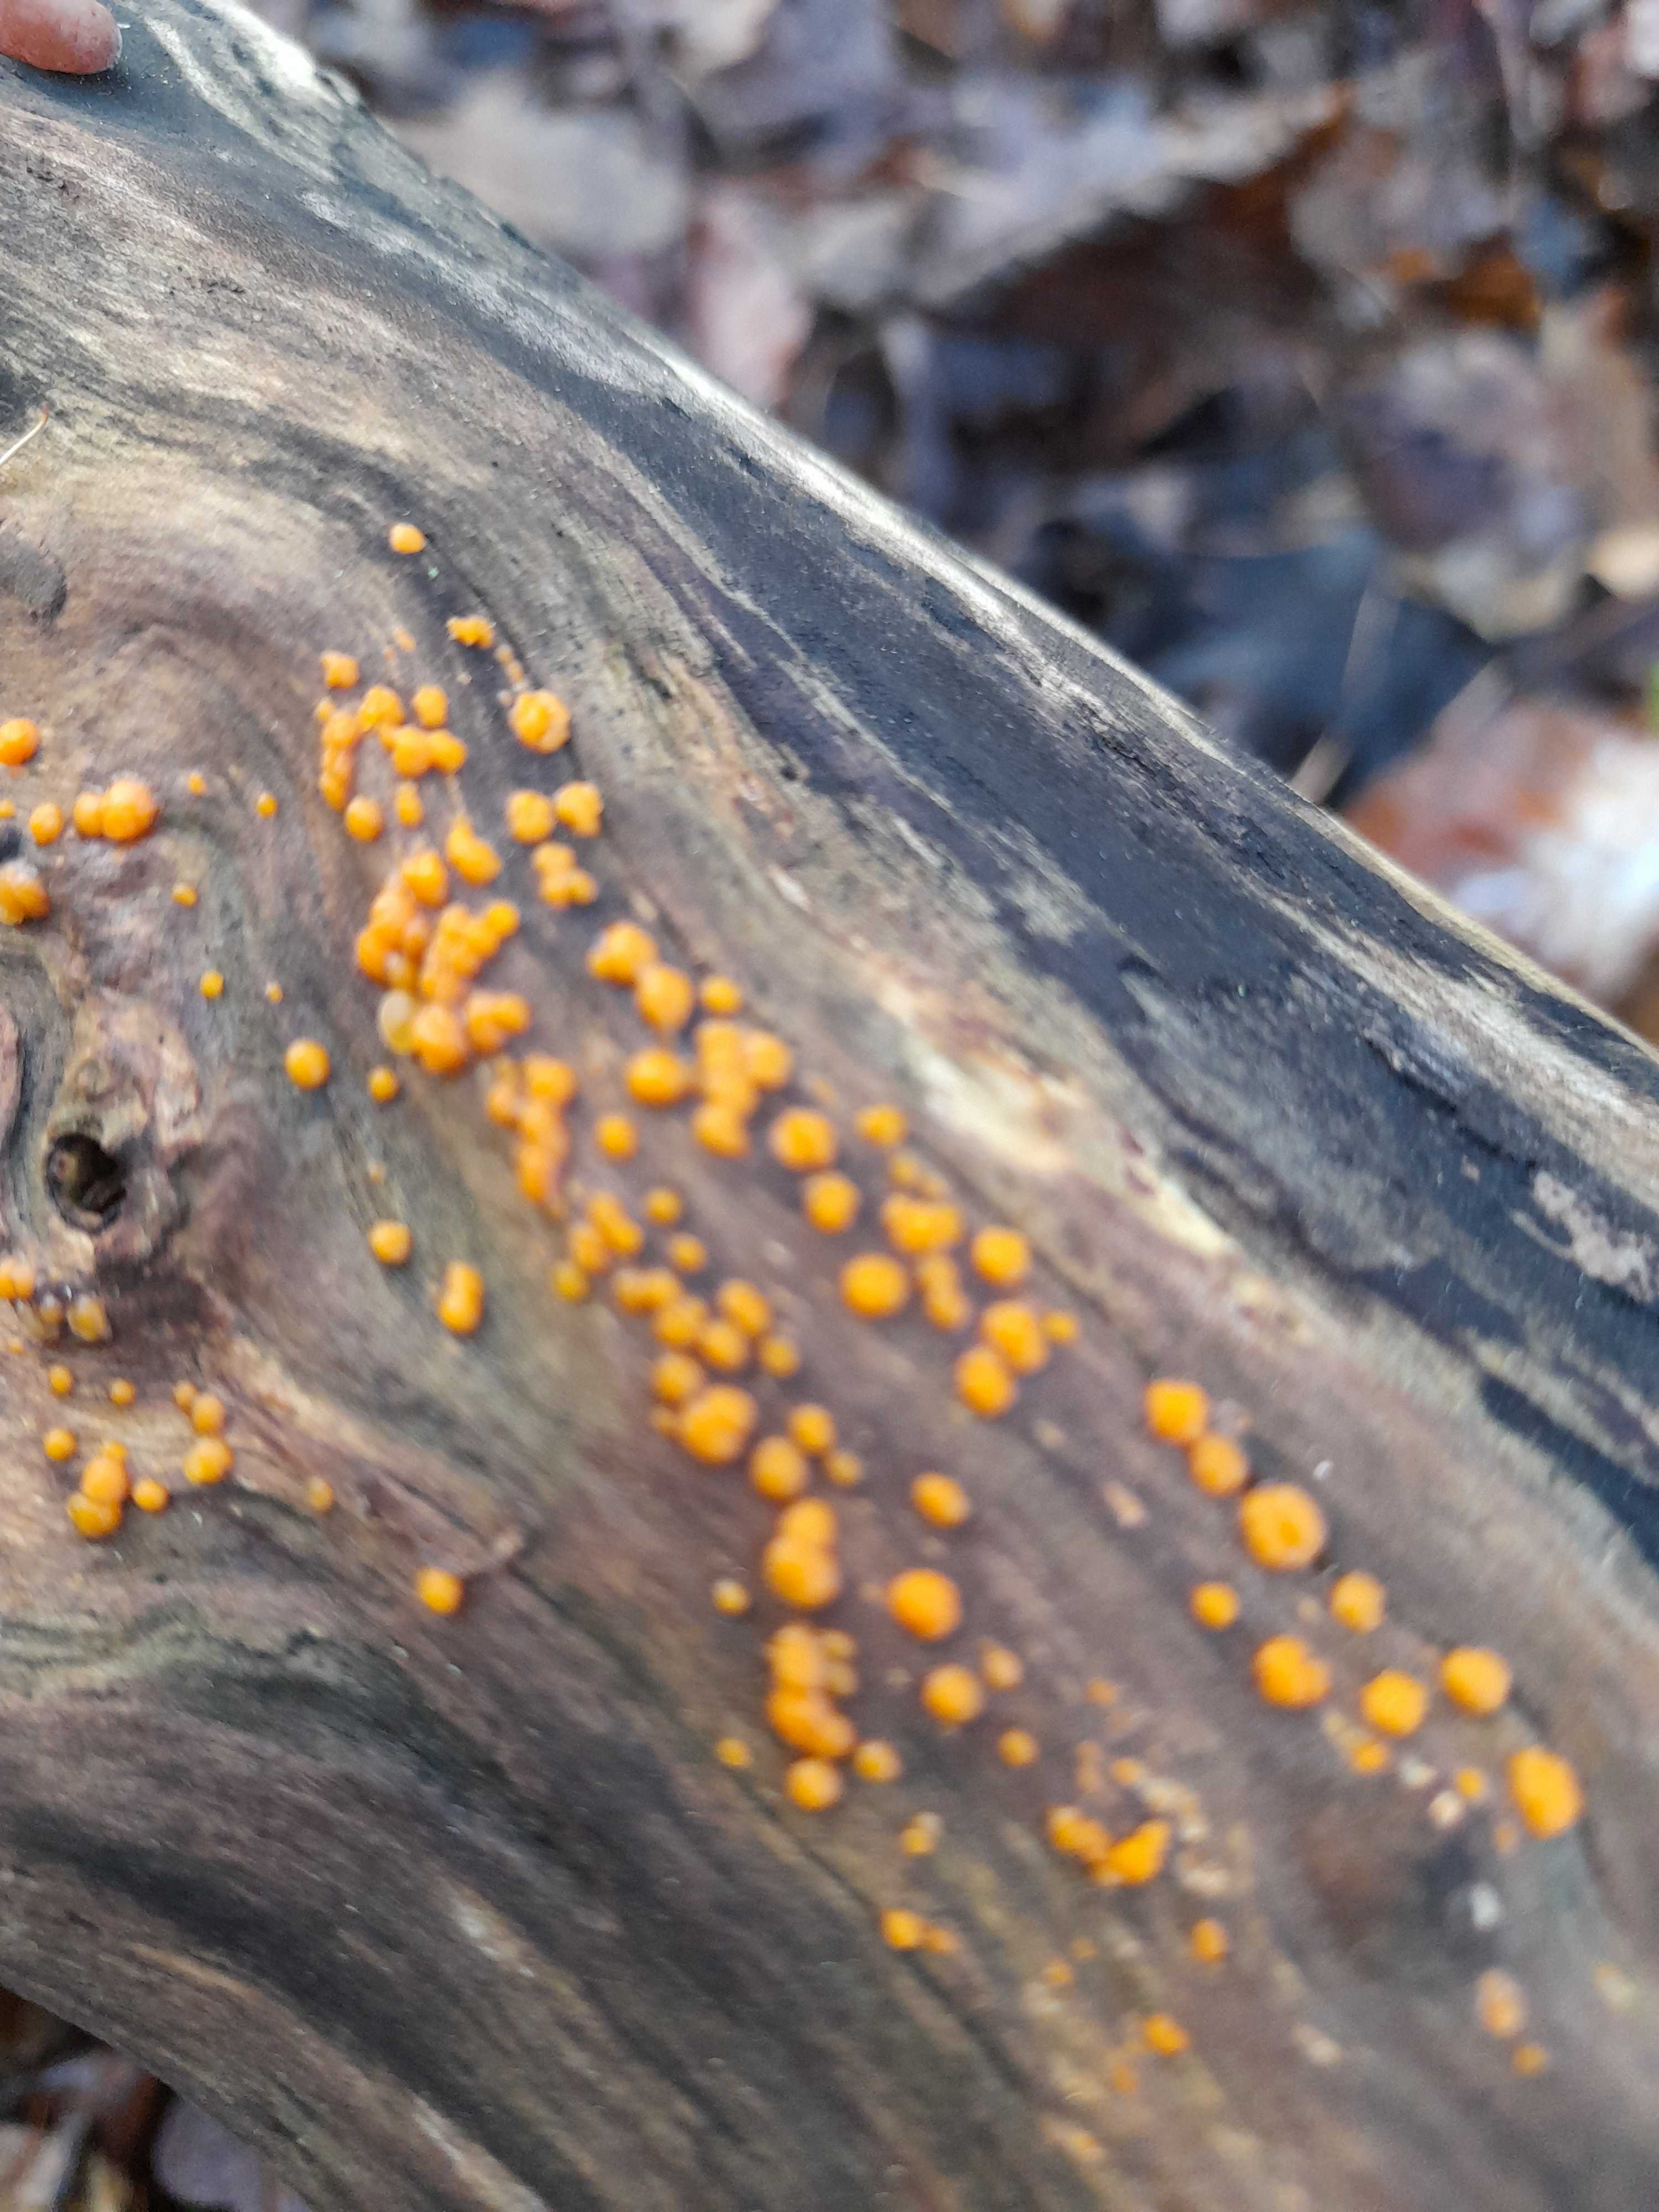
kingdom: Fungi
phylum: Basidiomycota
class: Dacrymycetes
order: Dacrymycetales
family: Dacrymycetaceae
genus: Dacrymyces
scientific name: Dacrymyces stillatus
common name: almindelig tåresvamp
